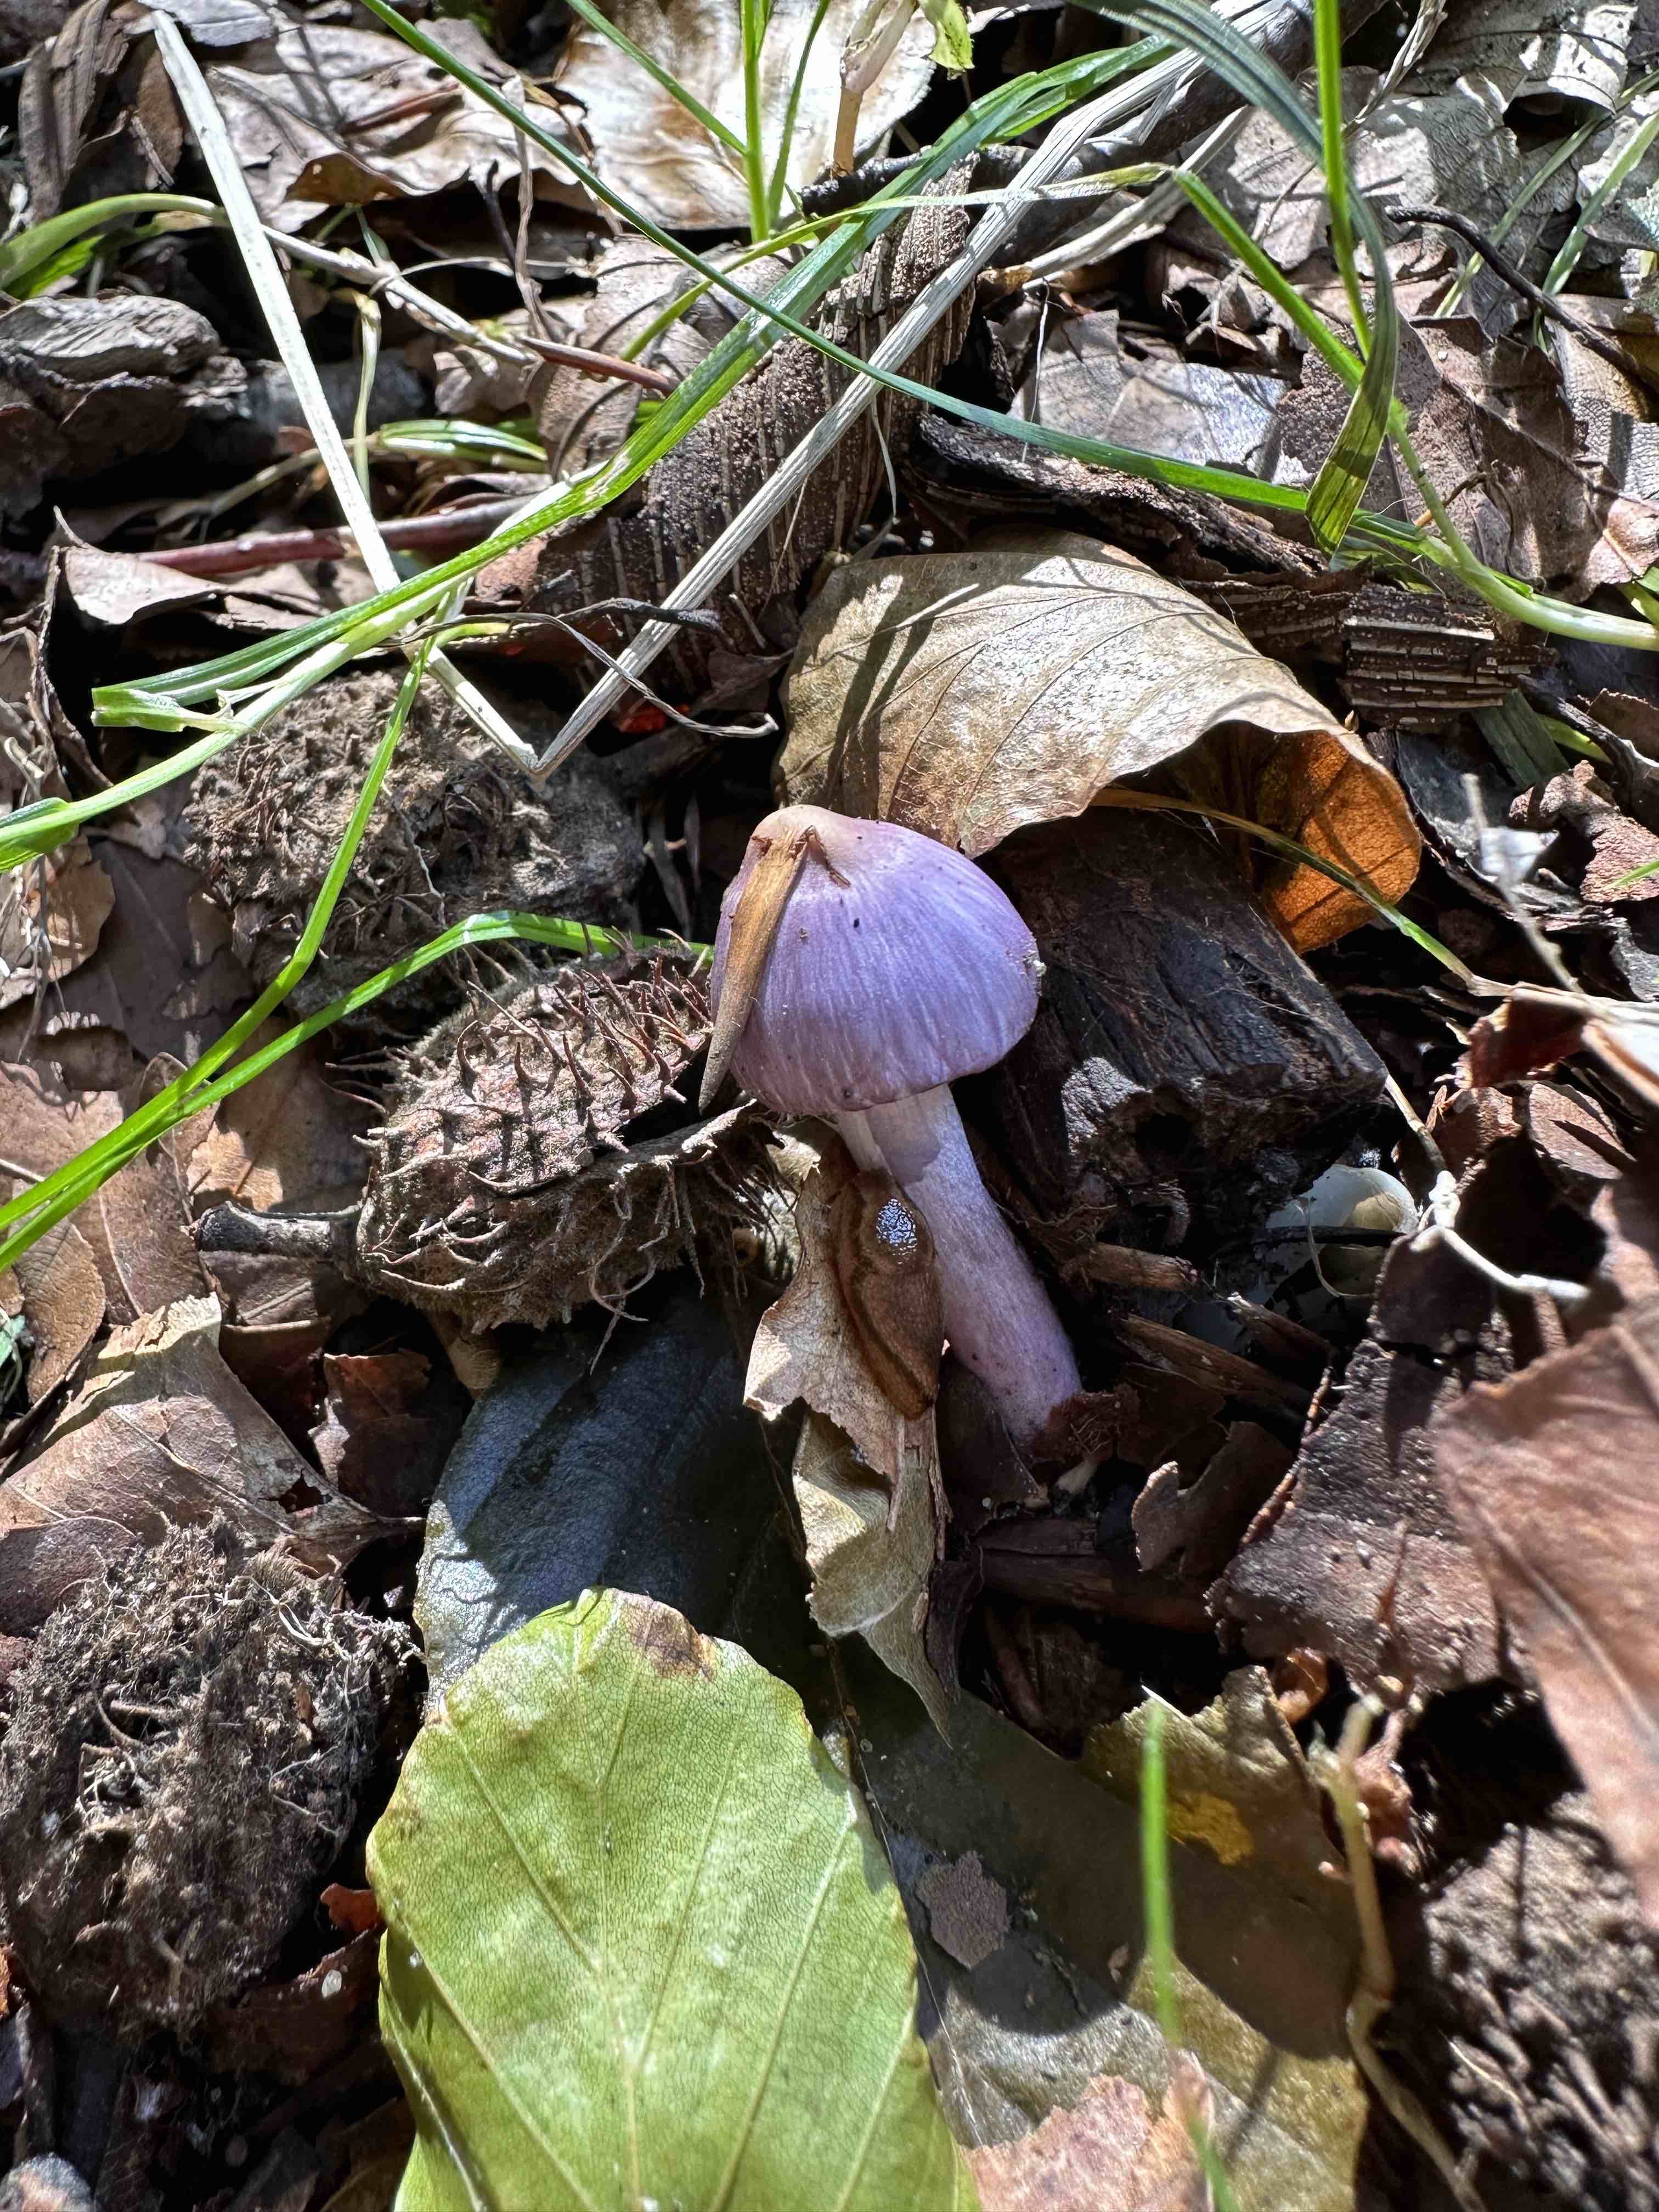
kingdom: Fungi
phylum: Basidiomycota
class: Agaricomycetes
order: Agaricales
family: Hydnangiaceae
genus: Laccaria
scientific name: Laccaria amethystina
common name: violet ametysthat
